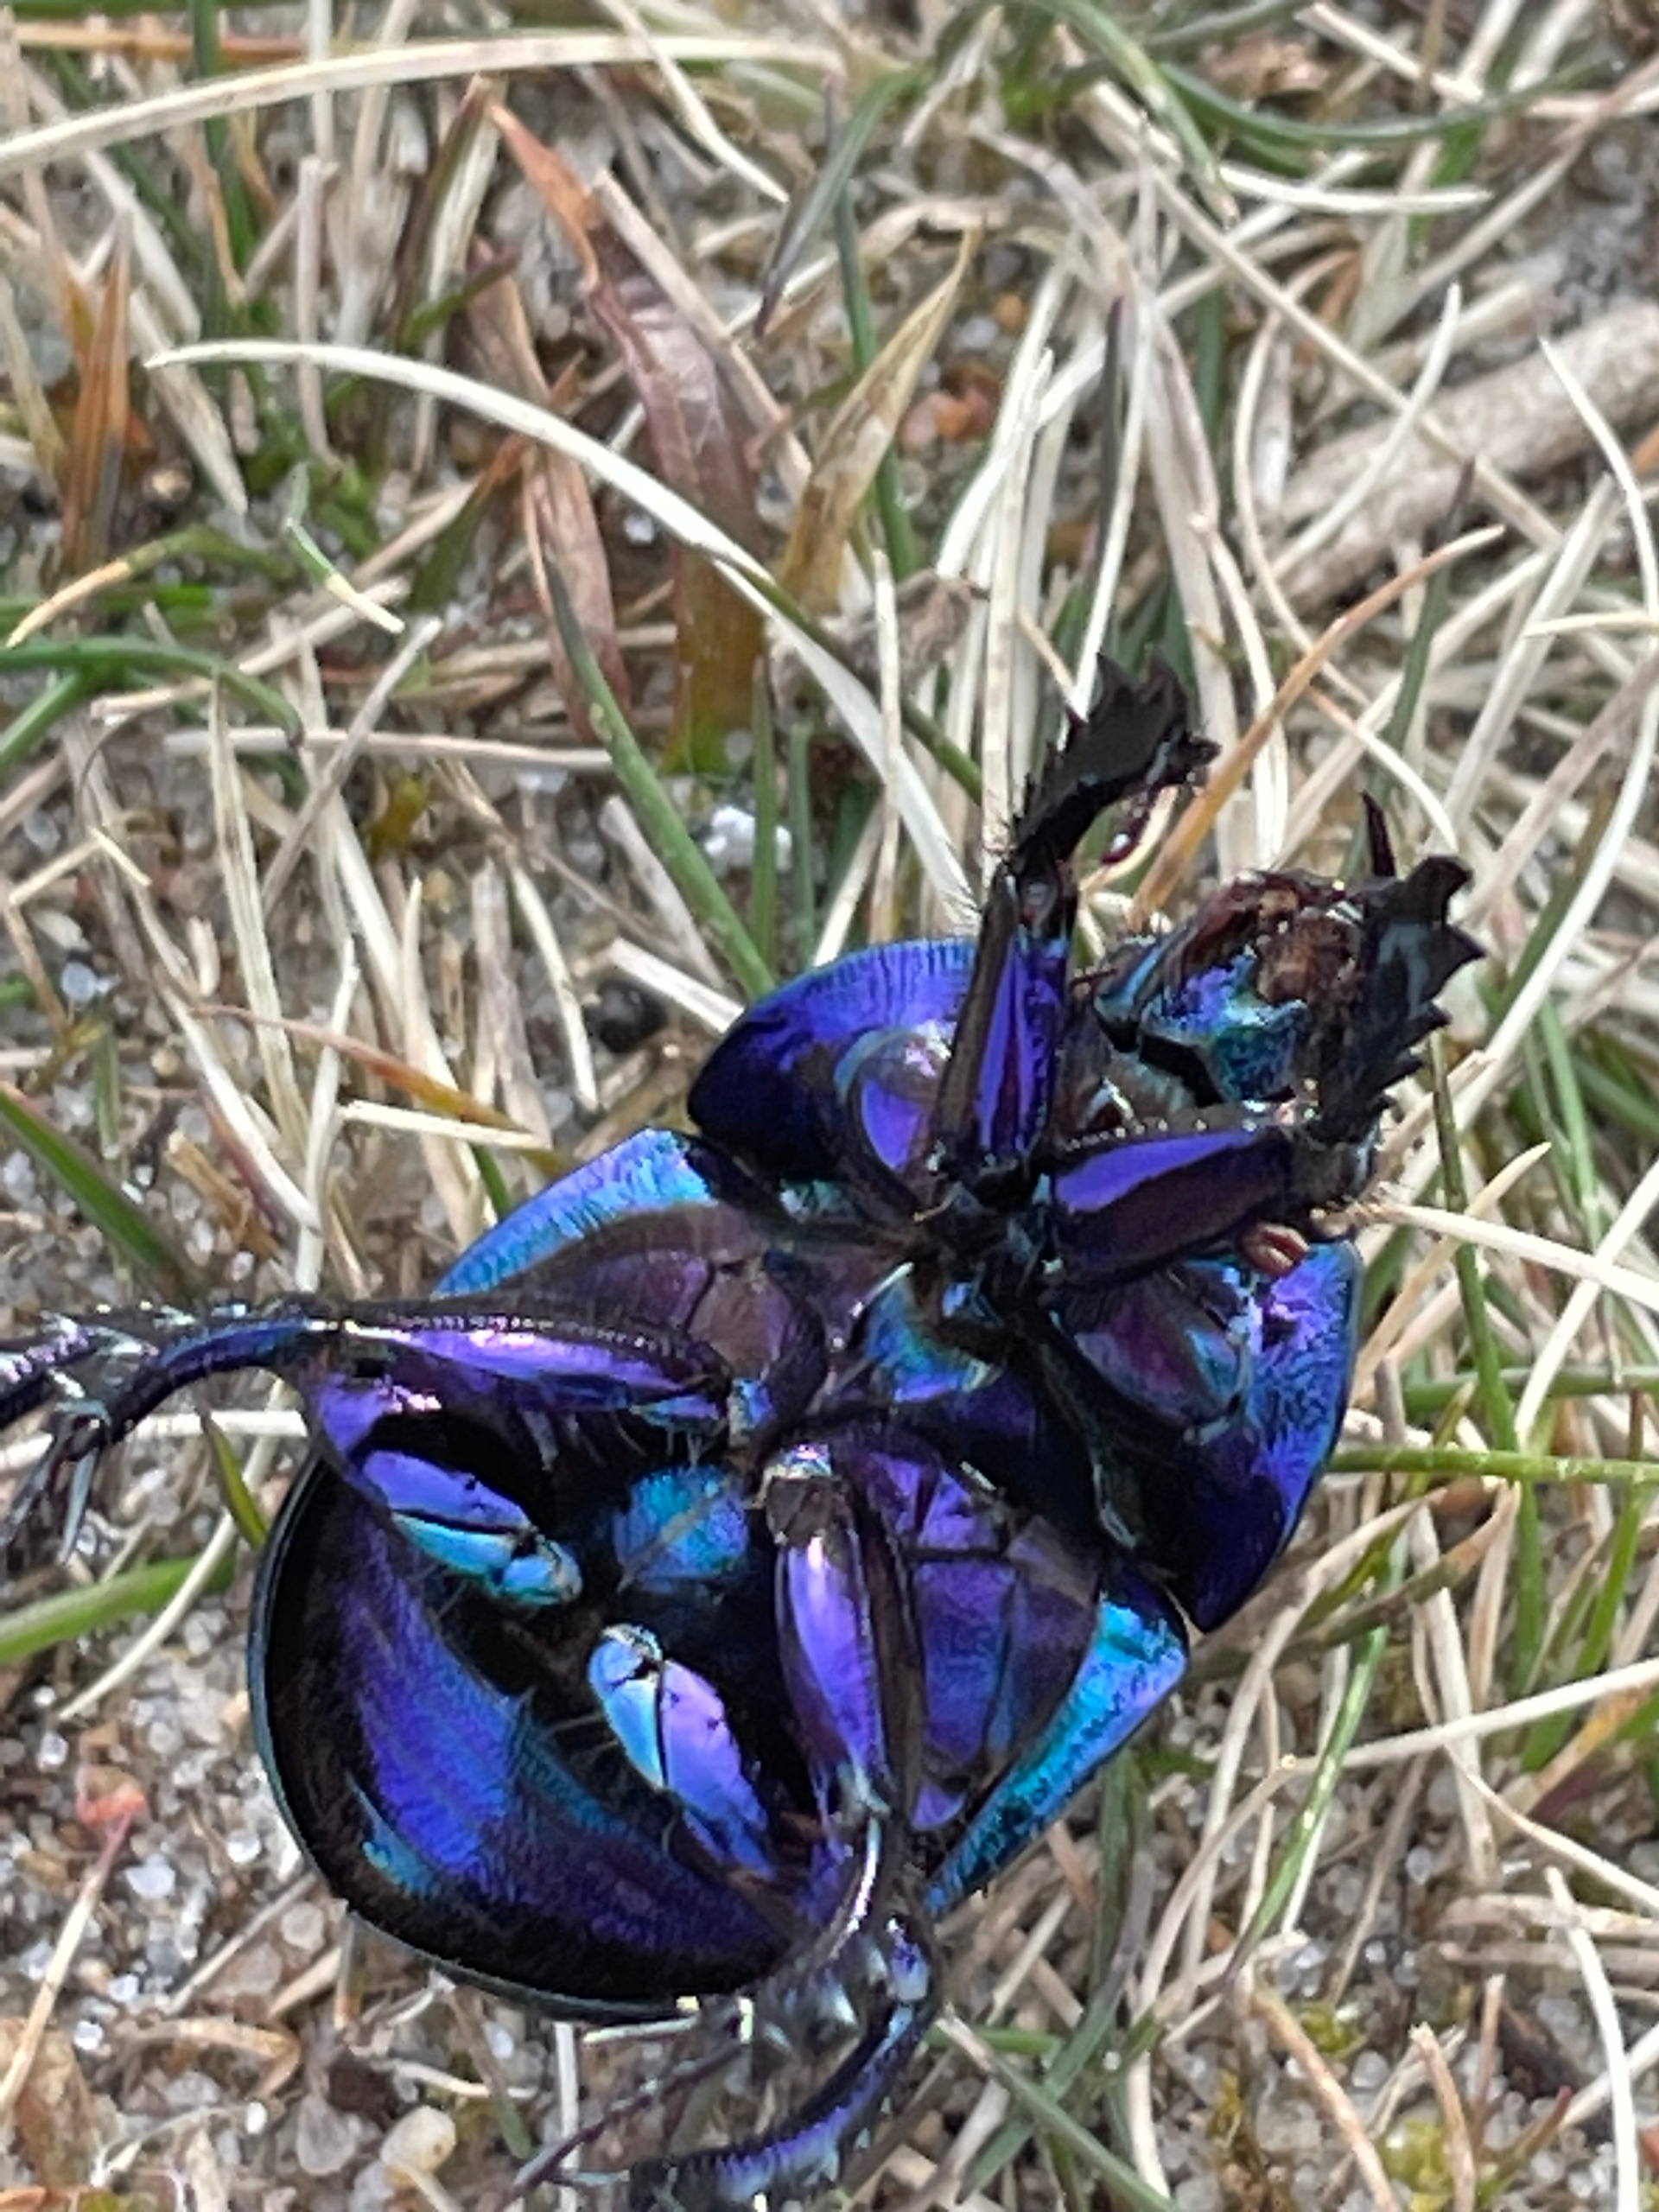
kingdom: Animalia
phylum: Arthropoda
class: Insecta
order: Coleoptera
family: Geotrupidae
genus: Anoplotrupes
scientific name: Anoplotrupes stercorosus
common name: Skovskarnbasse
